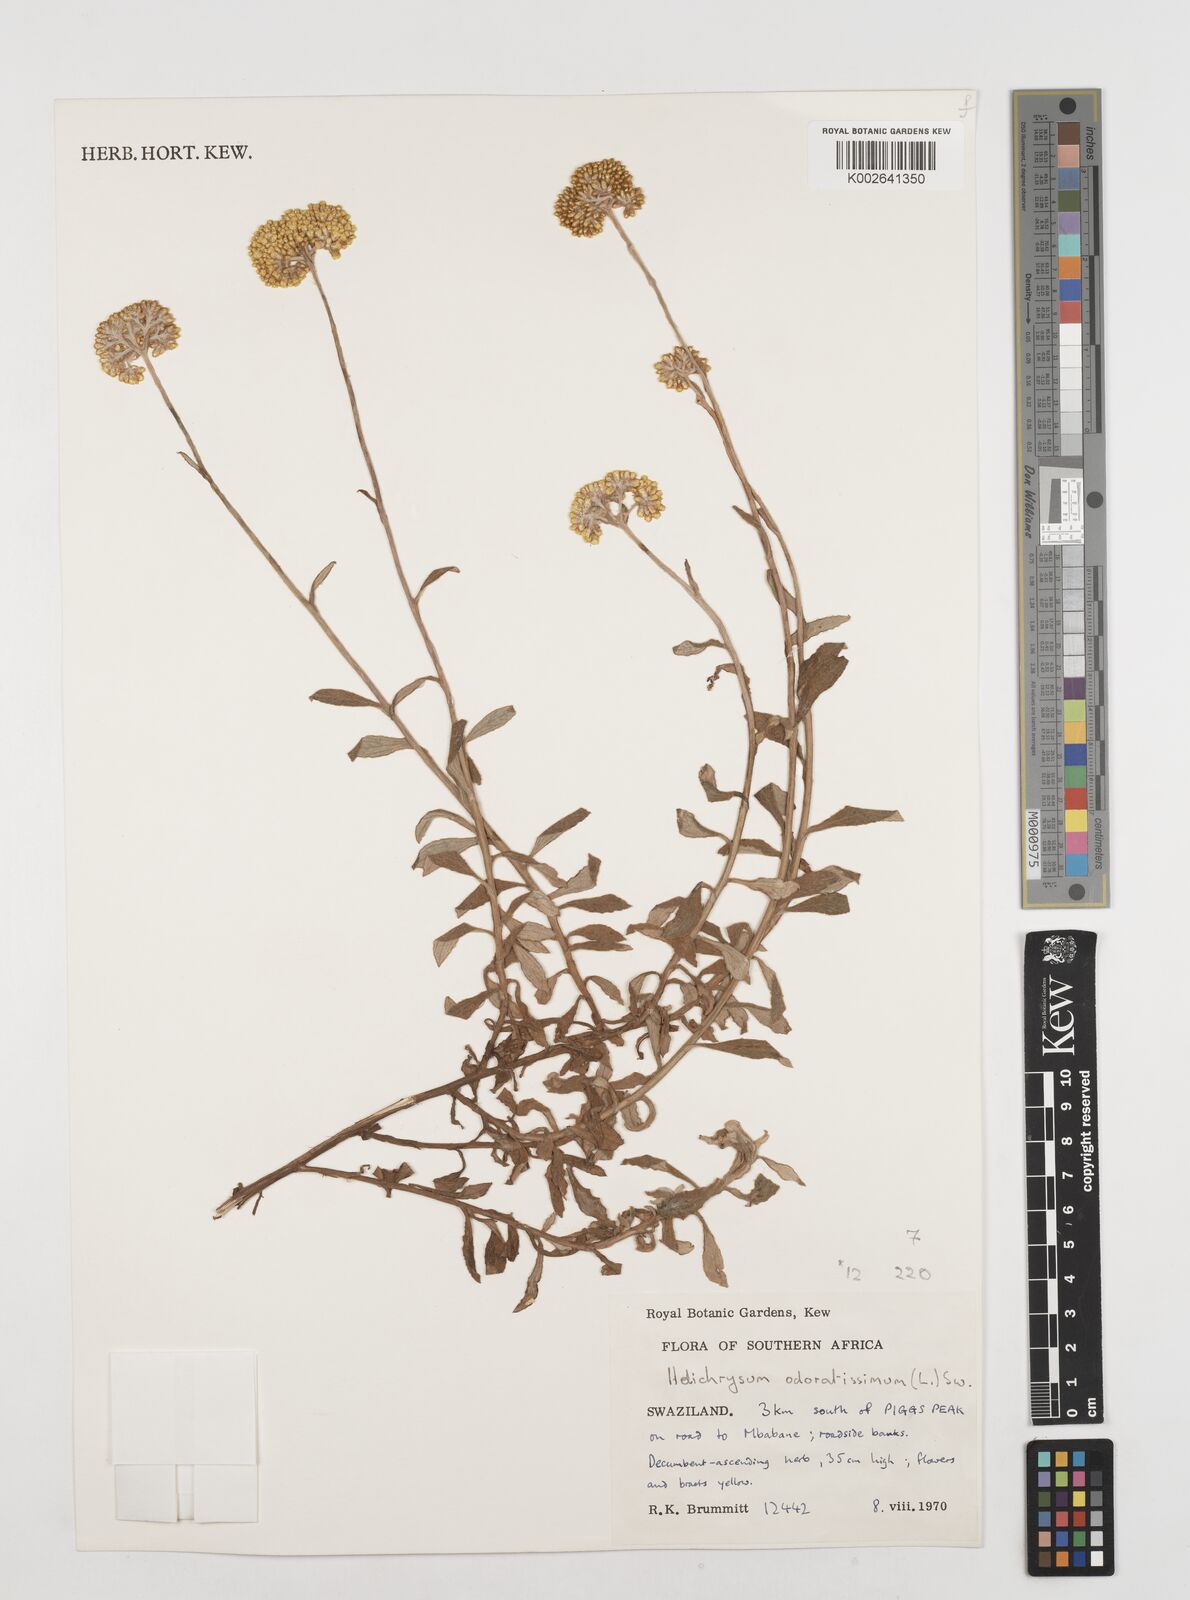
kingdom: Plantae
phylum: Tracheophyta
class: Magnoliopsida
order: Asterales
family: Asteraceae
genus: Helichrysum
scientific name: Helichrysum odoratissimum
